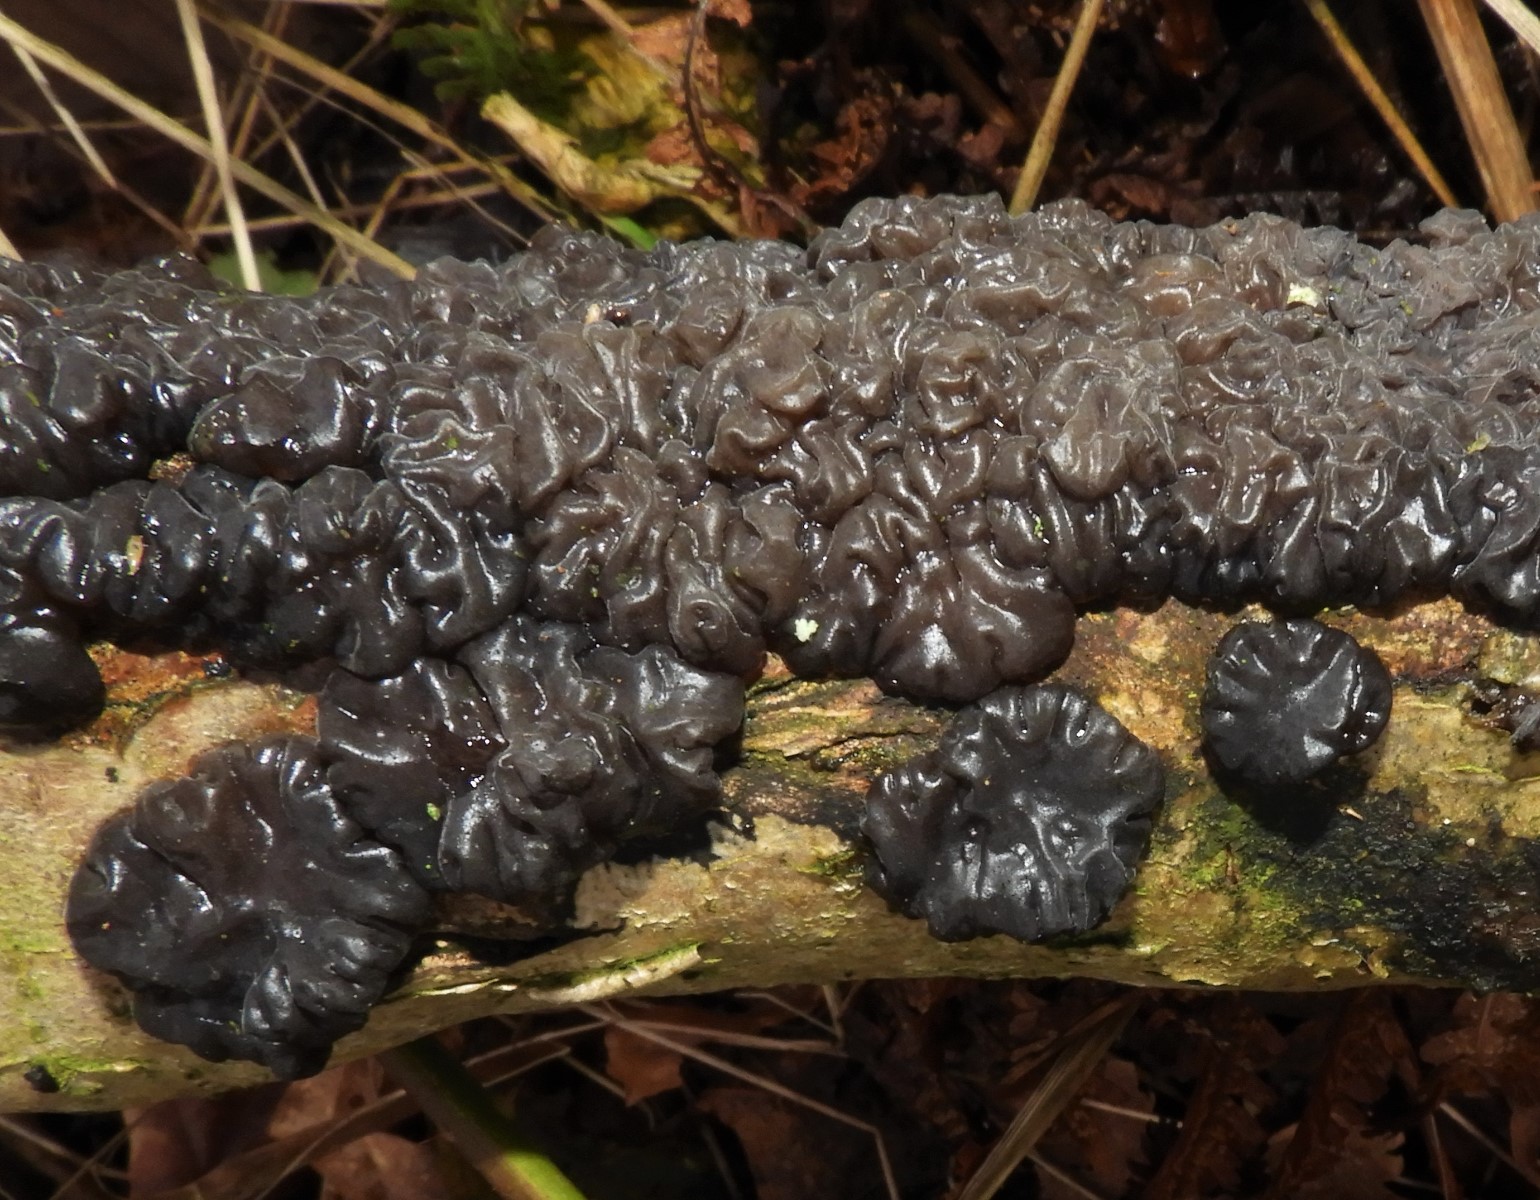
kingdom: Fungi
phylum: Basidiomycota
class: Agaricomycetes
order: Auriculariales
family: Auriculariaceae
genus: Exidia
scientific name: Exidia nigricans
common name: almindelig bævretop
